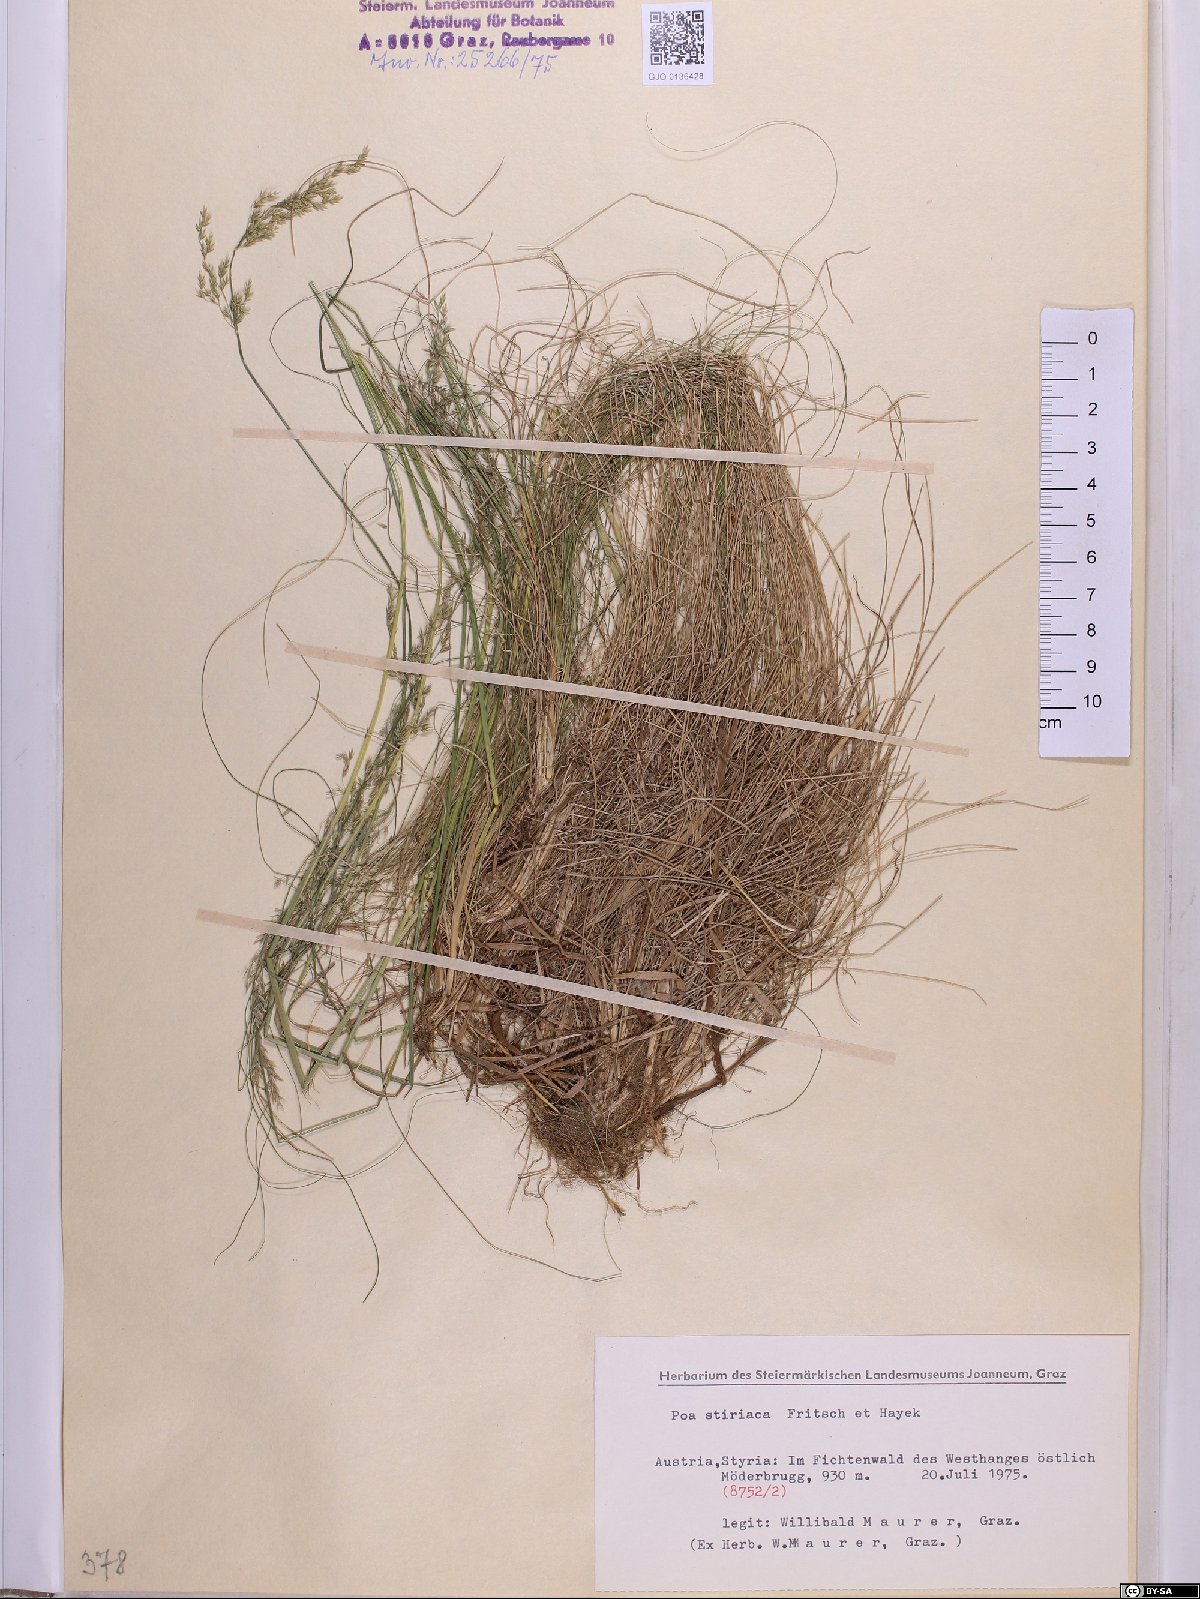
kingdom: Plantae
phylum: Tracheophyta
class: Liliopsida
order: Poales
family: Poaceae
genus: Poa
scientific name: Poa stiriaca
